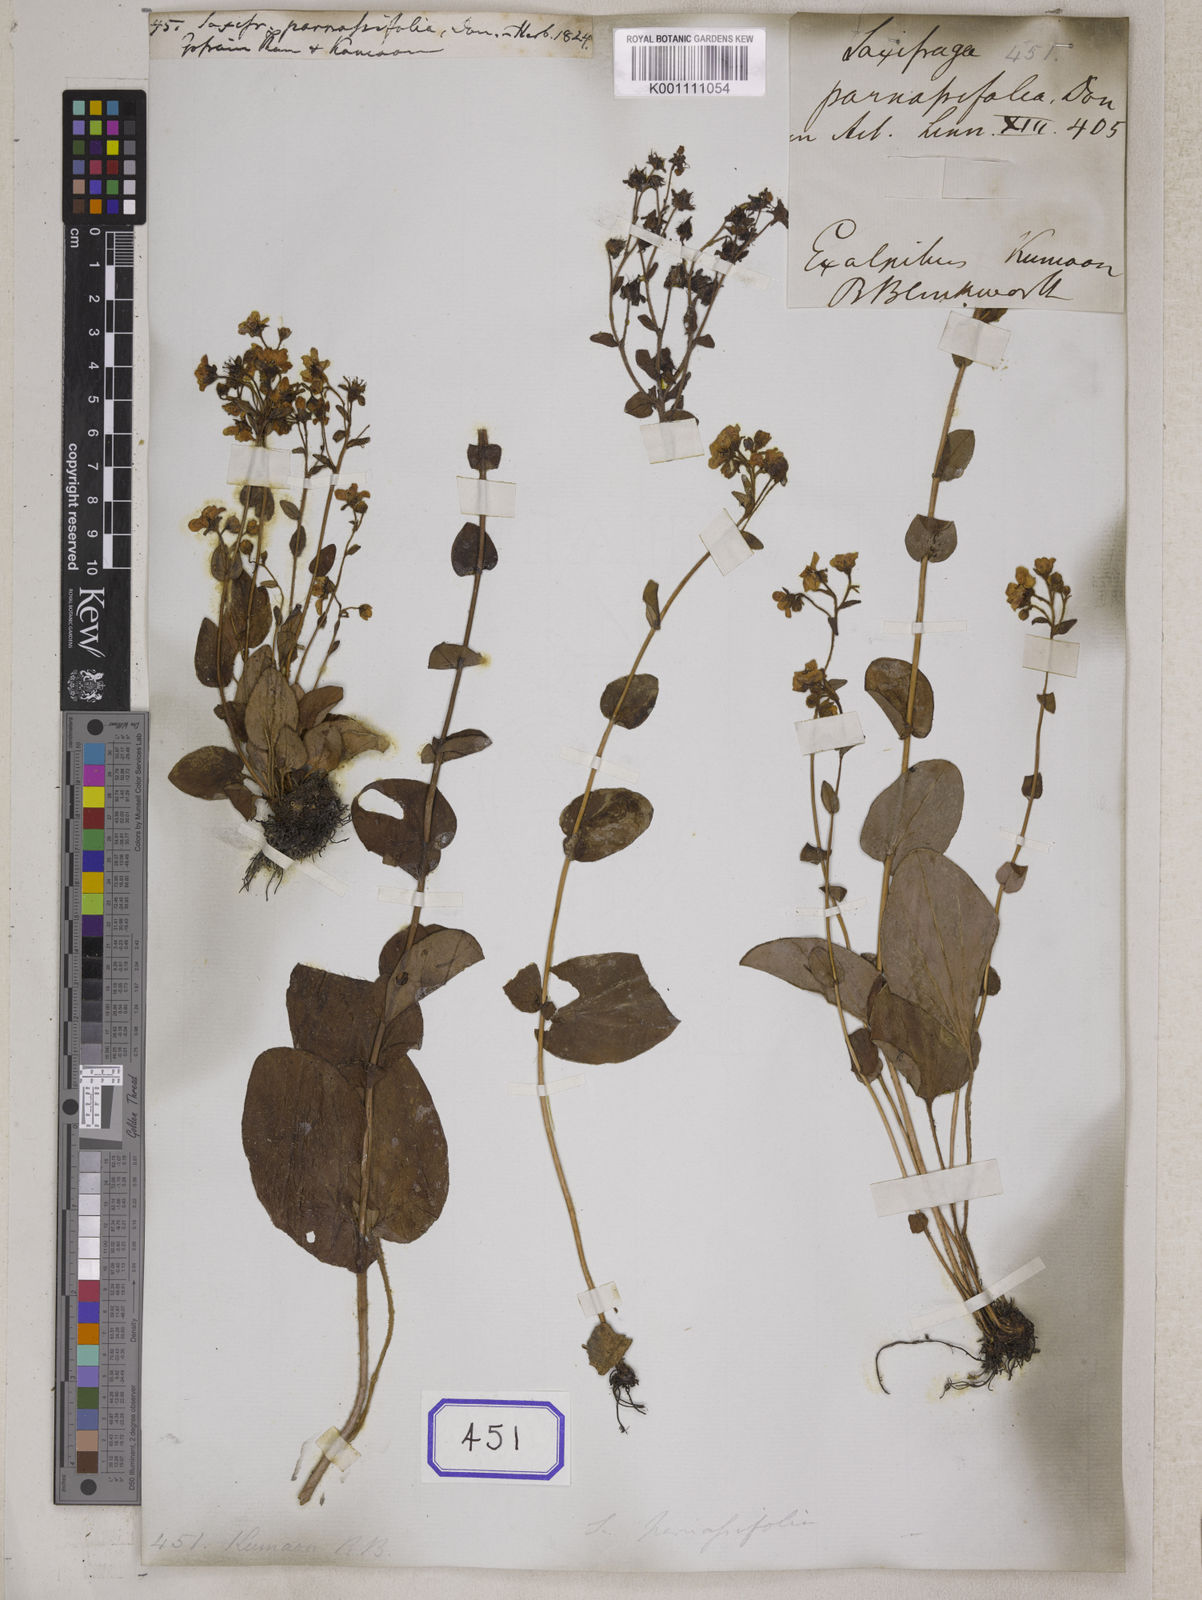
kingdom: Plantae
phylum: Tracheophyta
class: Magnoliopsida
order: Saxifragales
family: Saxifragaceae
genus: Saxifraga
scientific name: Saxifraga parnassifolia
